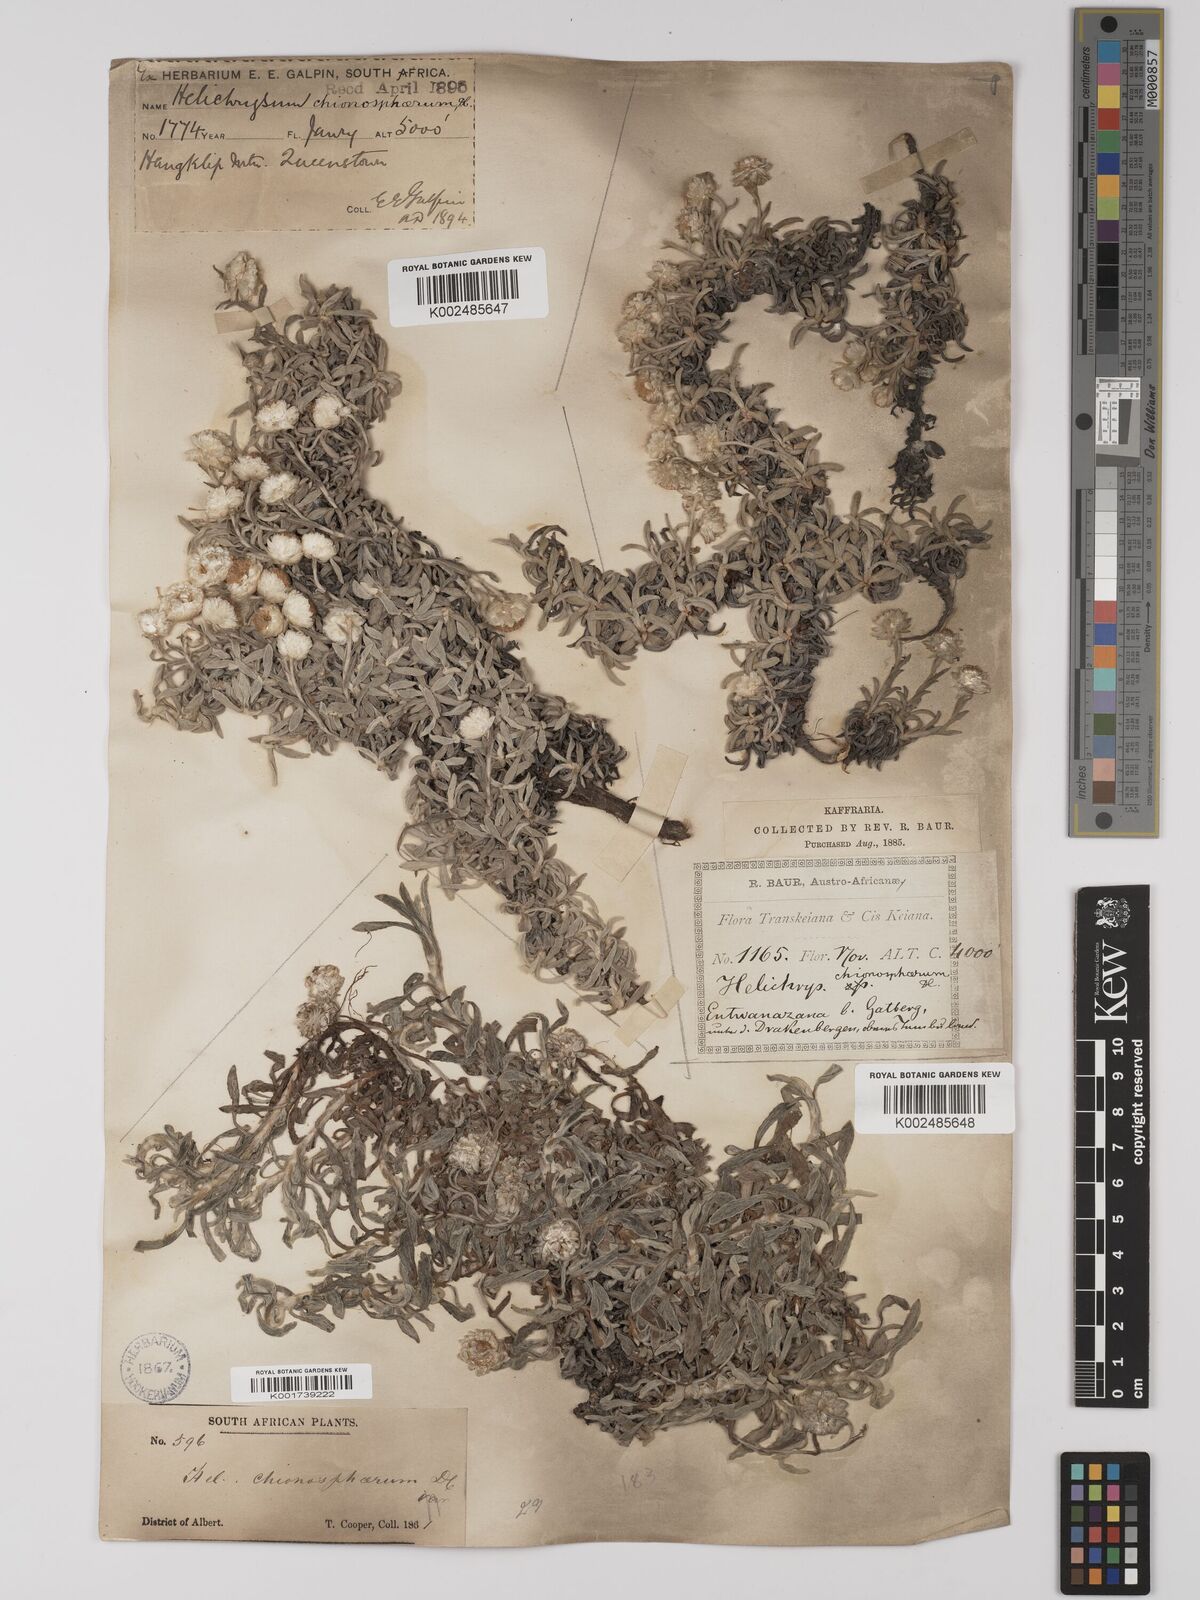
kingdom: Plantae
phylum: Tracheophyta
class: Magnoliopsida
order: Asterales
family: Asteraceae
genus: Helichrysum
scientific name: Helichrysum chionosphaerum
